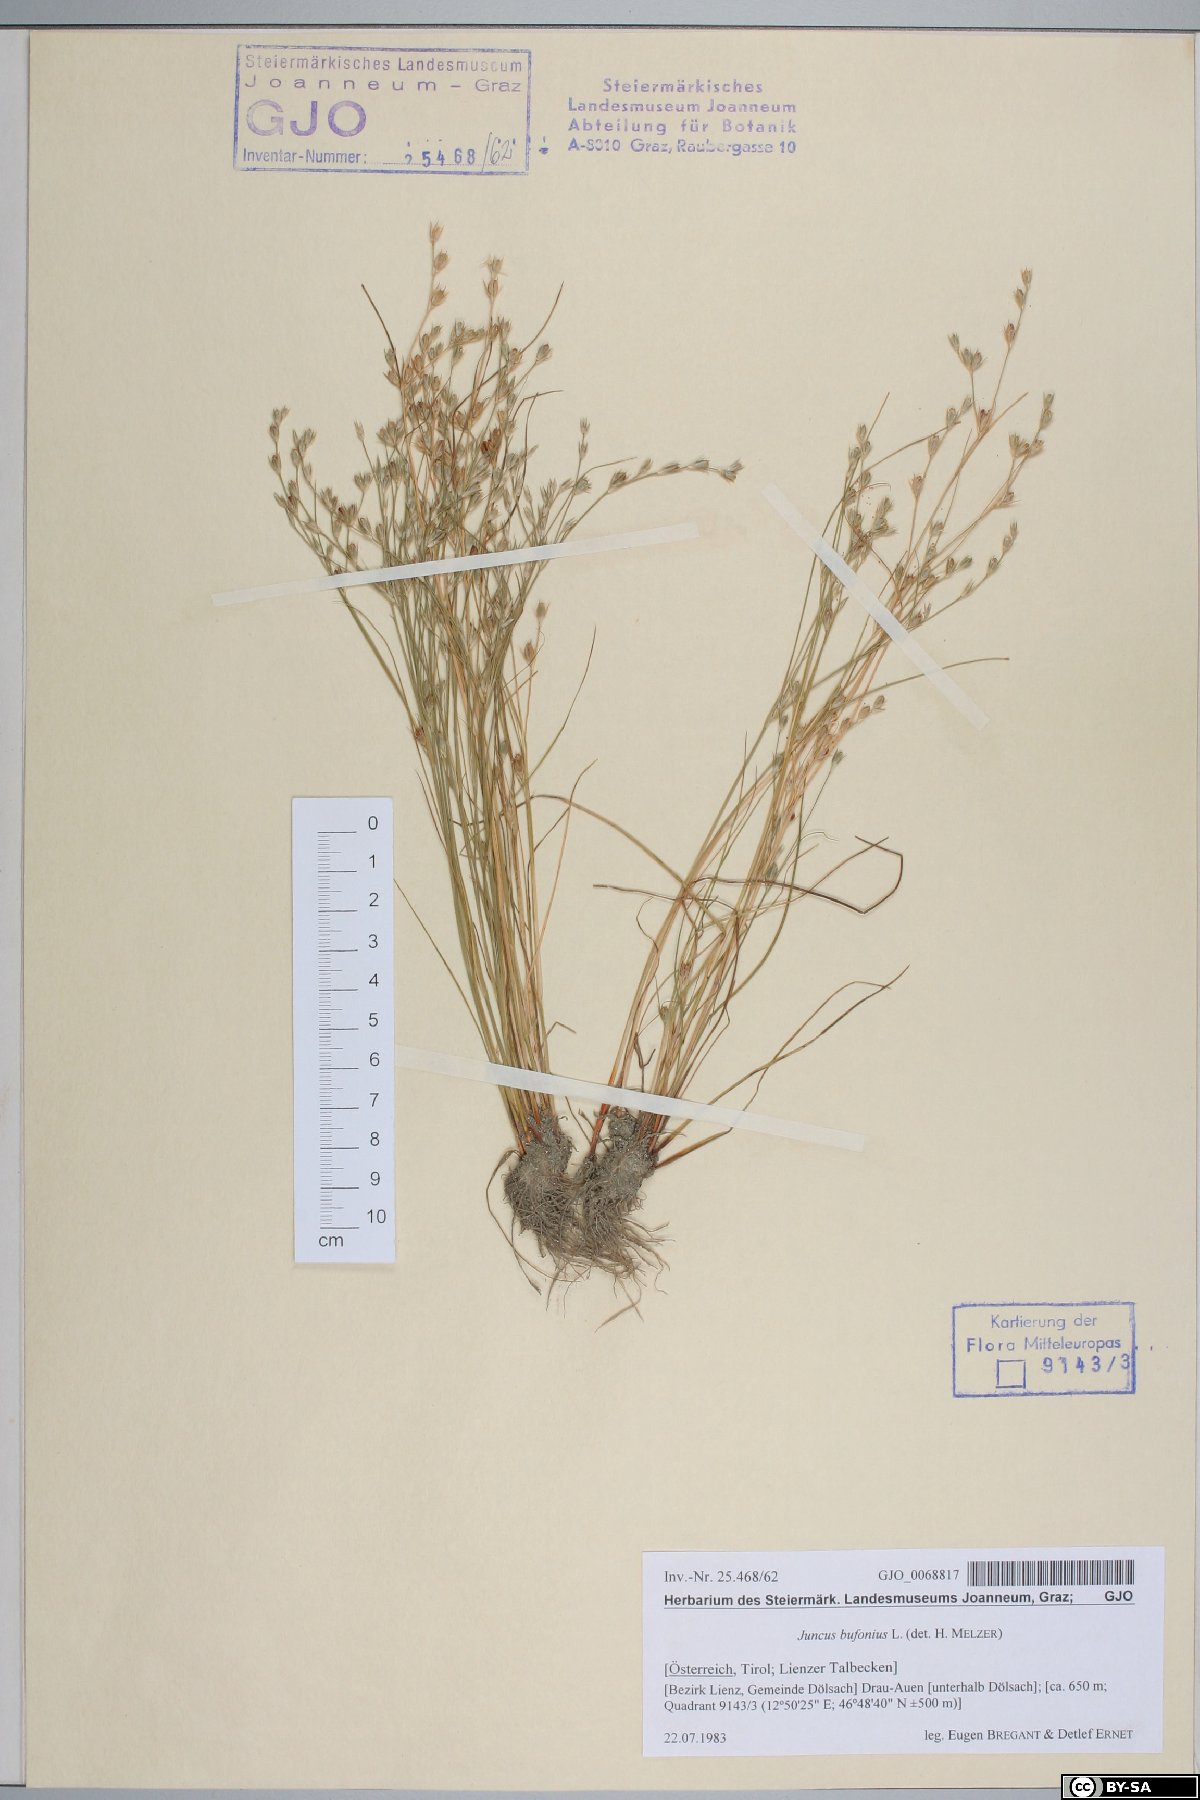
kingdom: Plantae
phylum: Tracheophyta
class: Liliopsida
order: Poales
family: Juncaceae
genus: Juncus
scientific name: Juncus bufonius
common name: Toad rush
